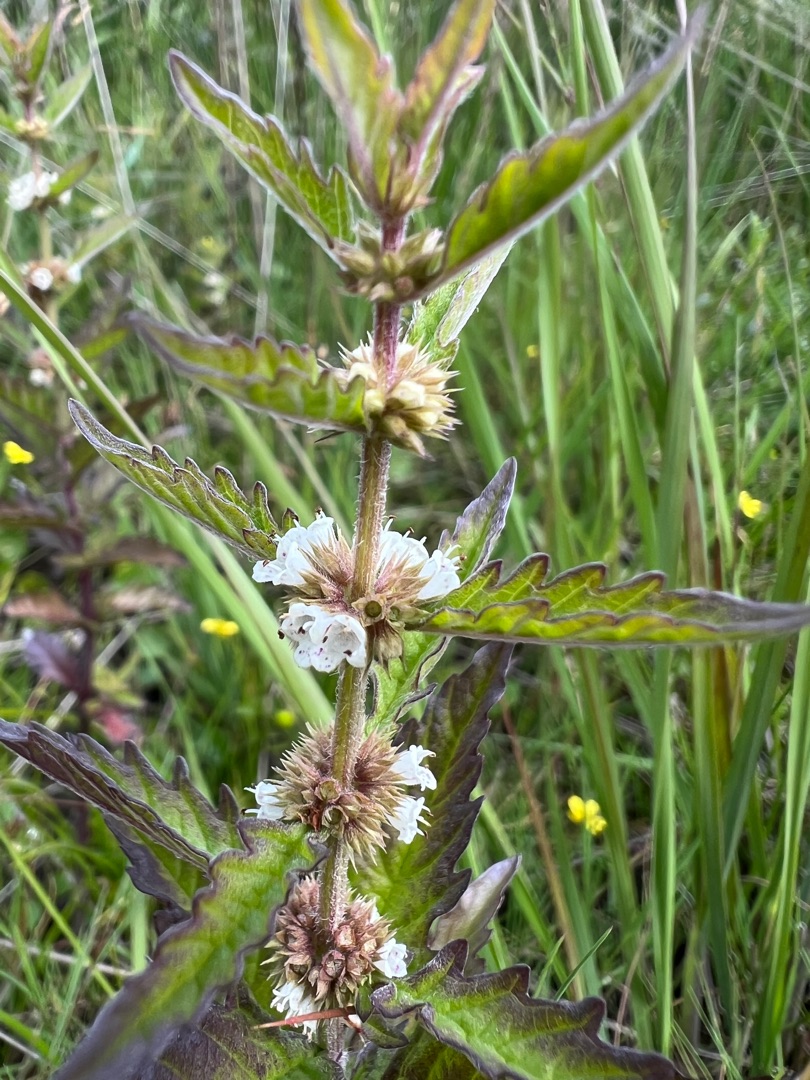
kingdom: Plantae
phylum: Tracheophyta
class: Magnoliopsida
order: Lamiales
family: Lamiaceae
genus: Lycopus
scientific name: Lycopus europaeus
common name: Sværtevæld
